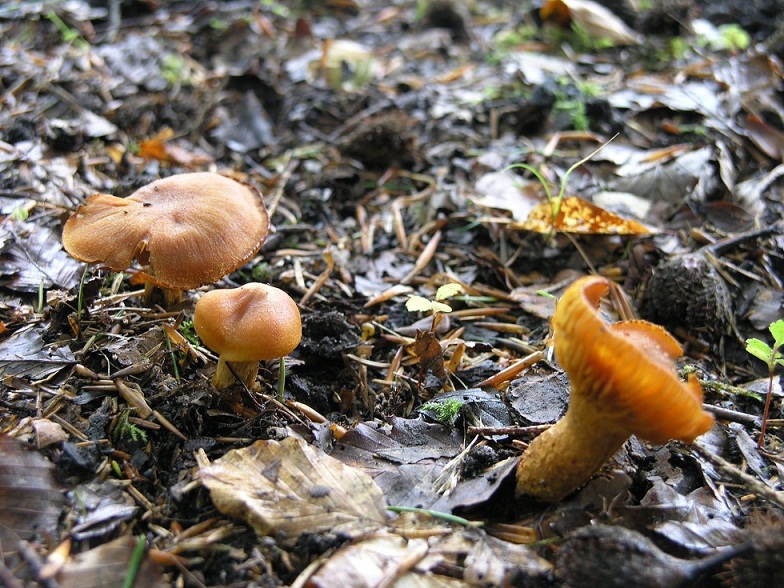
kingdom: Fungi
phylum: Basidiomycota
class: Agaricomycetes
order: Agaricales
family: Cortinariaceae
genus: Aureonarius
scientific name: Aureonarius limonius
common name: orangegul slørhat
